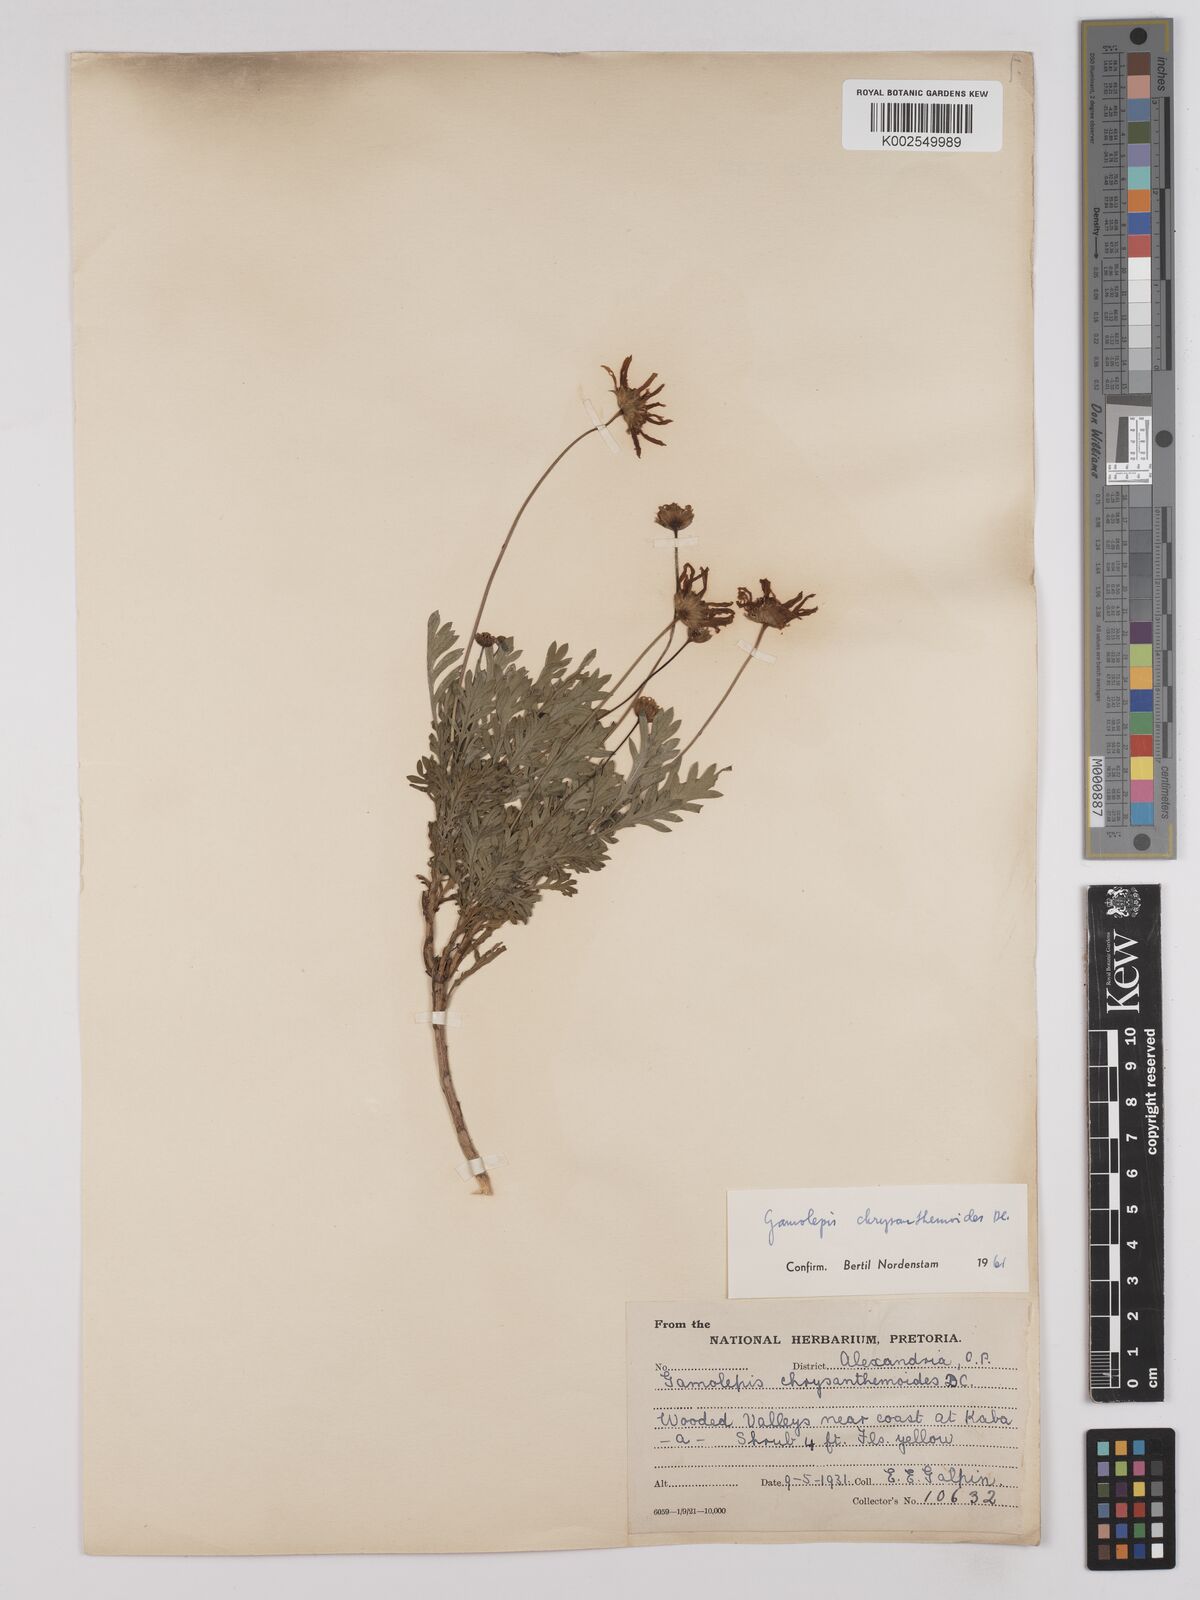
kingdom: Plantae
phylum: Tracheophyta
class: Magnoliopsida
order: Asterales
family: Asteraceae
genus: Euryops
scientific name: Euryops chrysanthemoides
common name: Bull's eye
